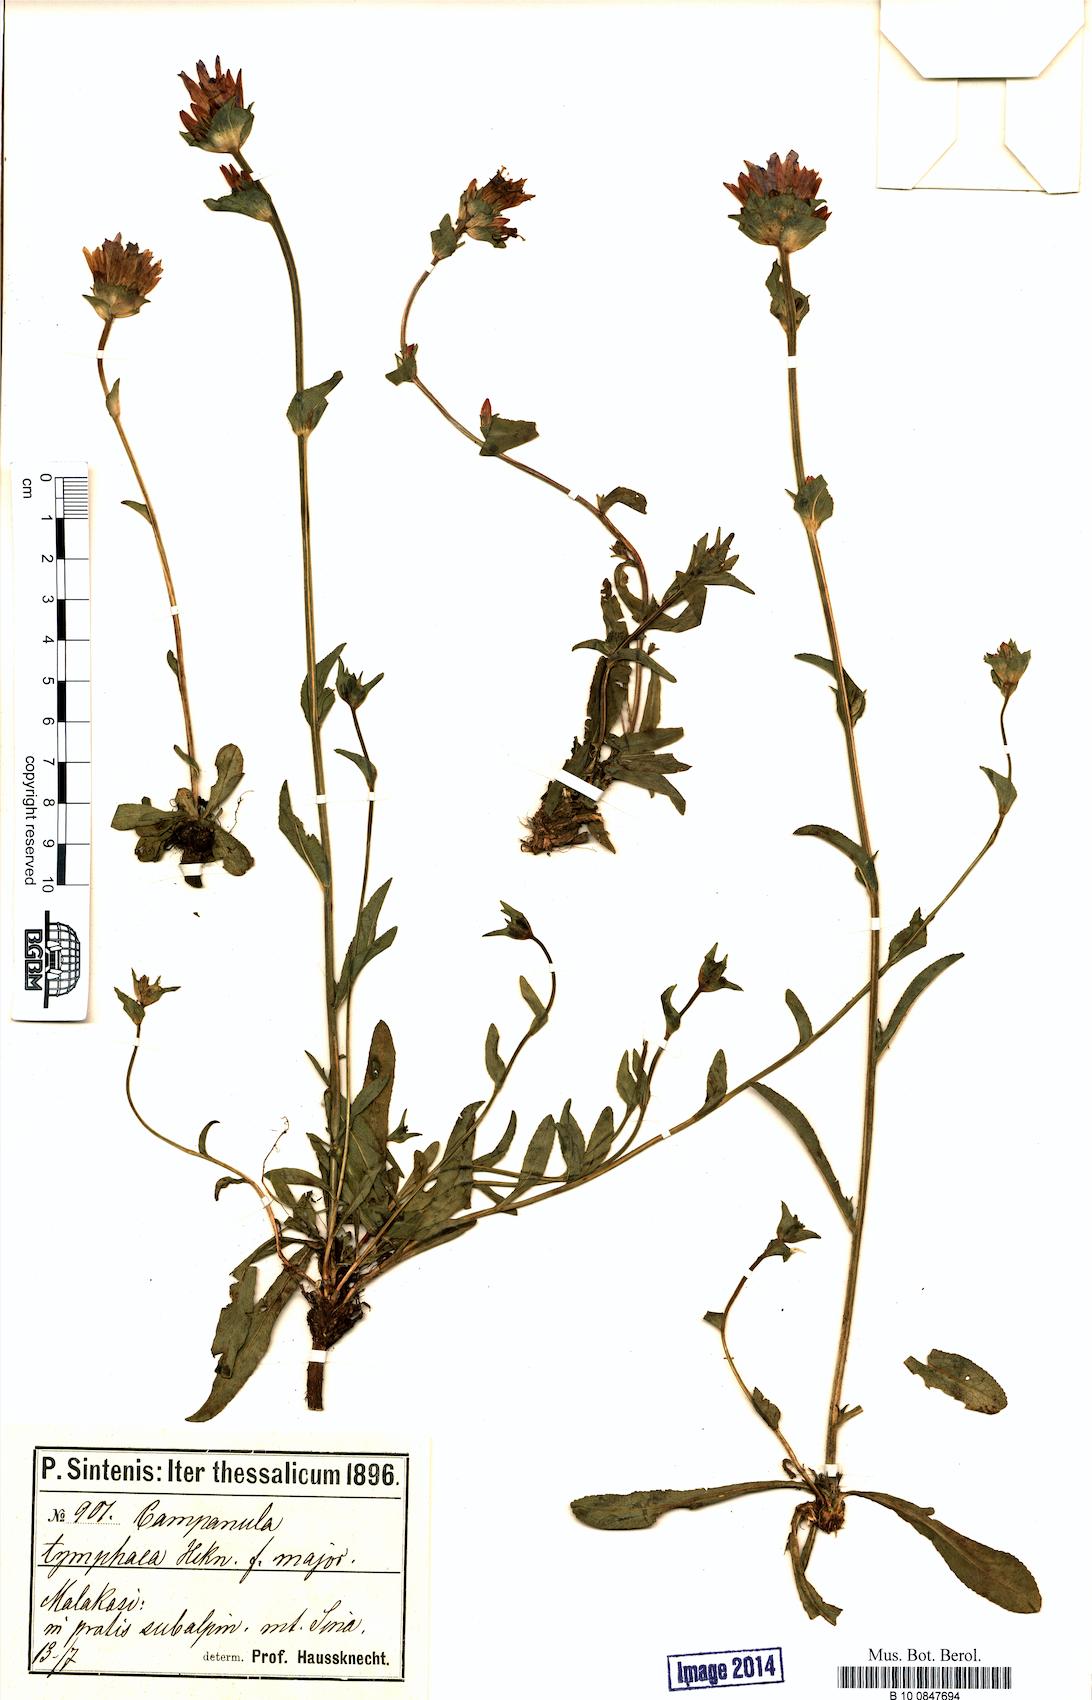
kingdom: Plantae
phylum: Tracheophyta
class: Magnoliopsida
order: Asterales
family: Campanulaceae
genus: Campanula
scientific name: Campanula tymphaea
